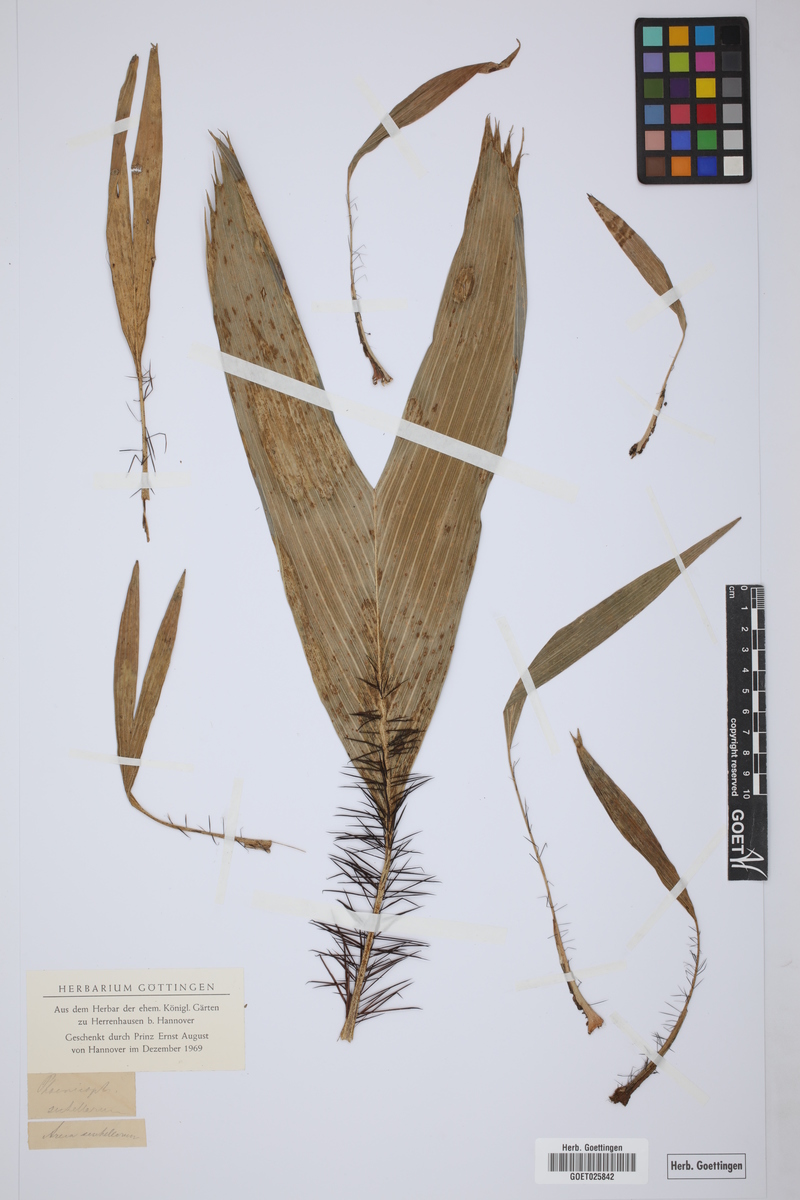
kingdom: Plantae
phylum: Tracheophyta
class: Liliopsida
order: Arecales
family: Arecaceae
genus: Phoenicophorium
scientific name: Phoenicophorium borsigianum
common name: Thief palm
